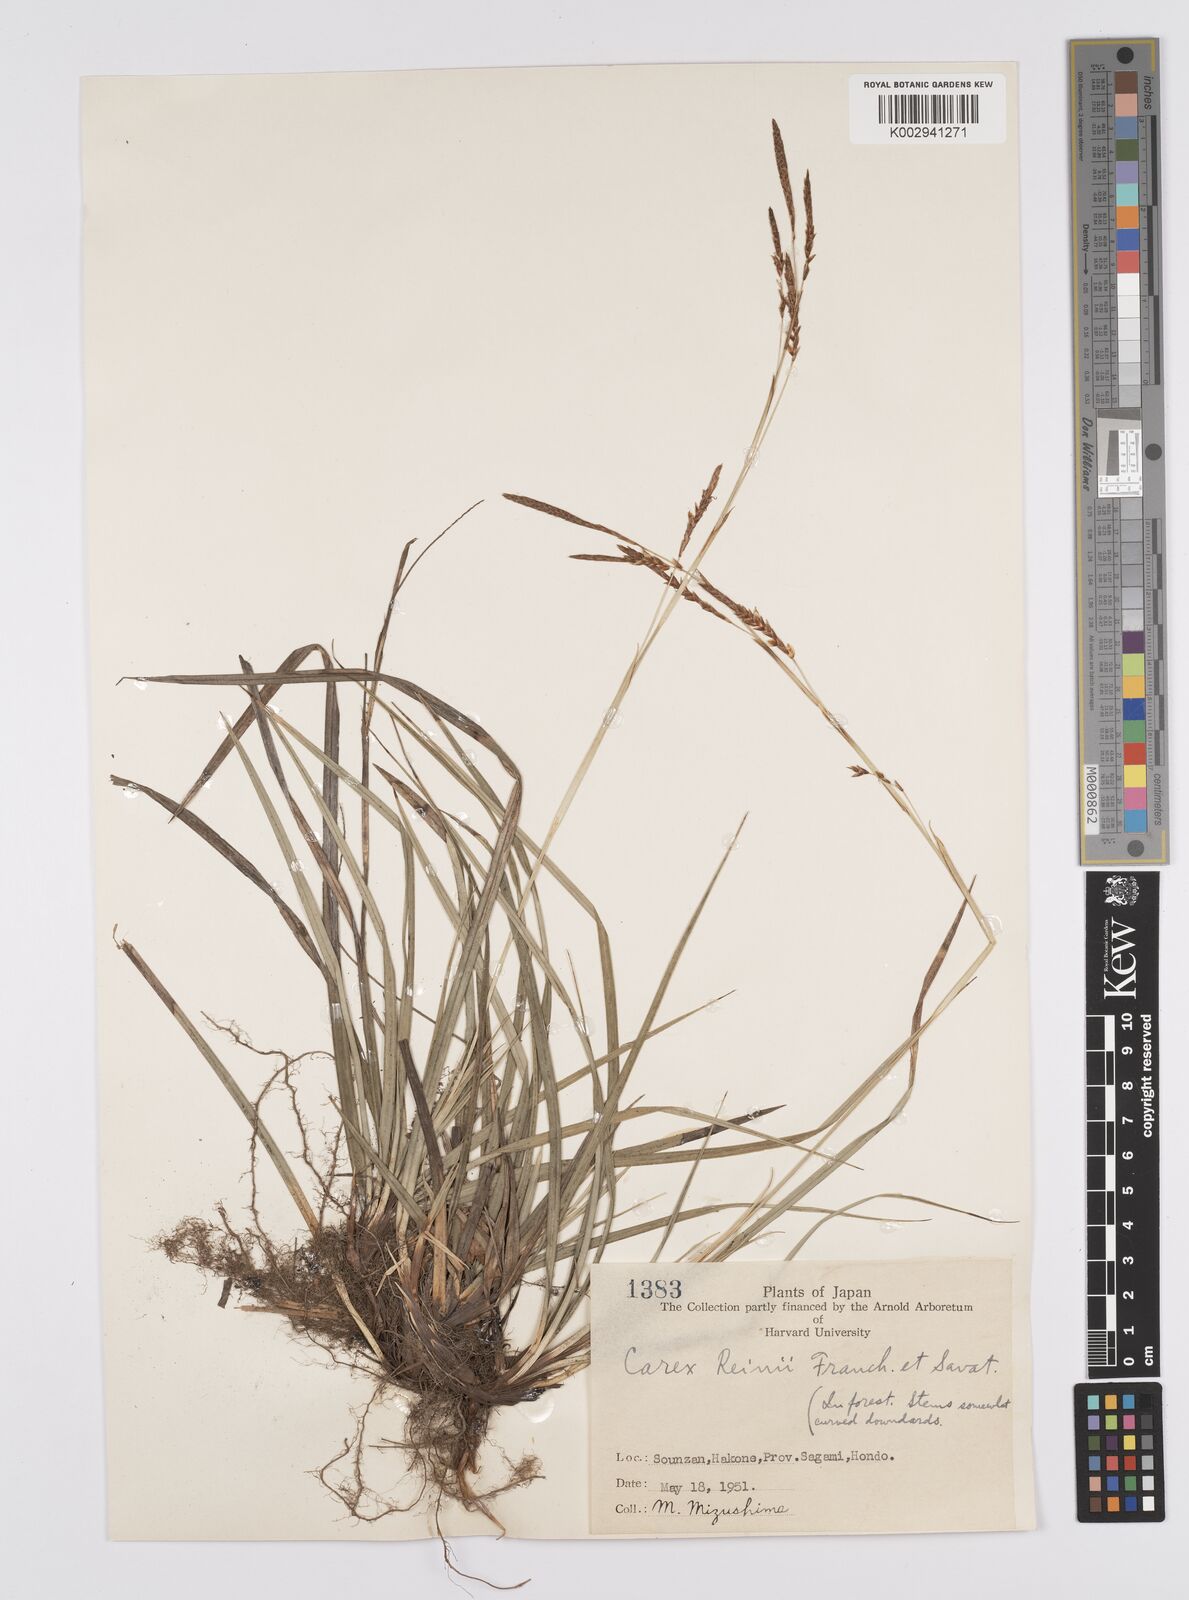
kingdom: Plantae
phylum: Tracheophyta
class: Liliopsida
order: Poales
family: Cyperaceae
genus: Carex
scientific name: Carex reinii
